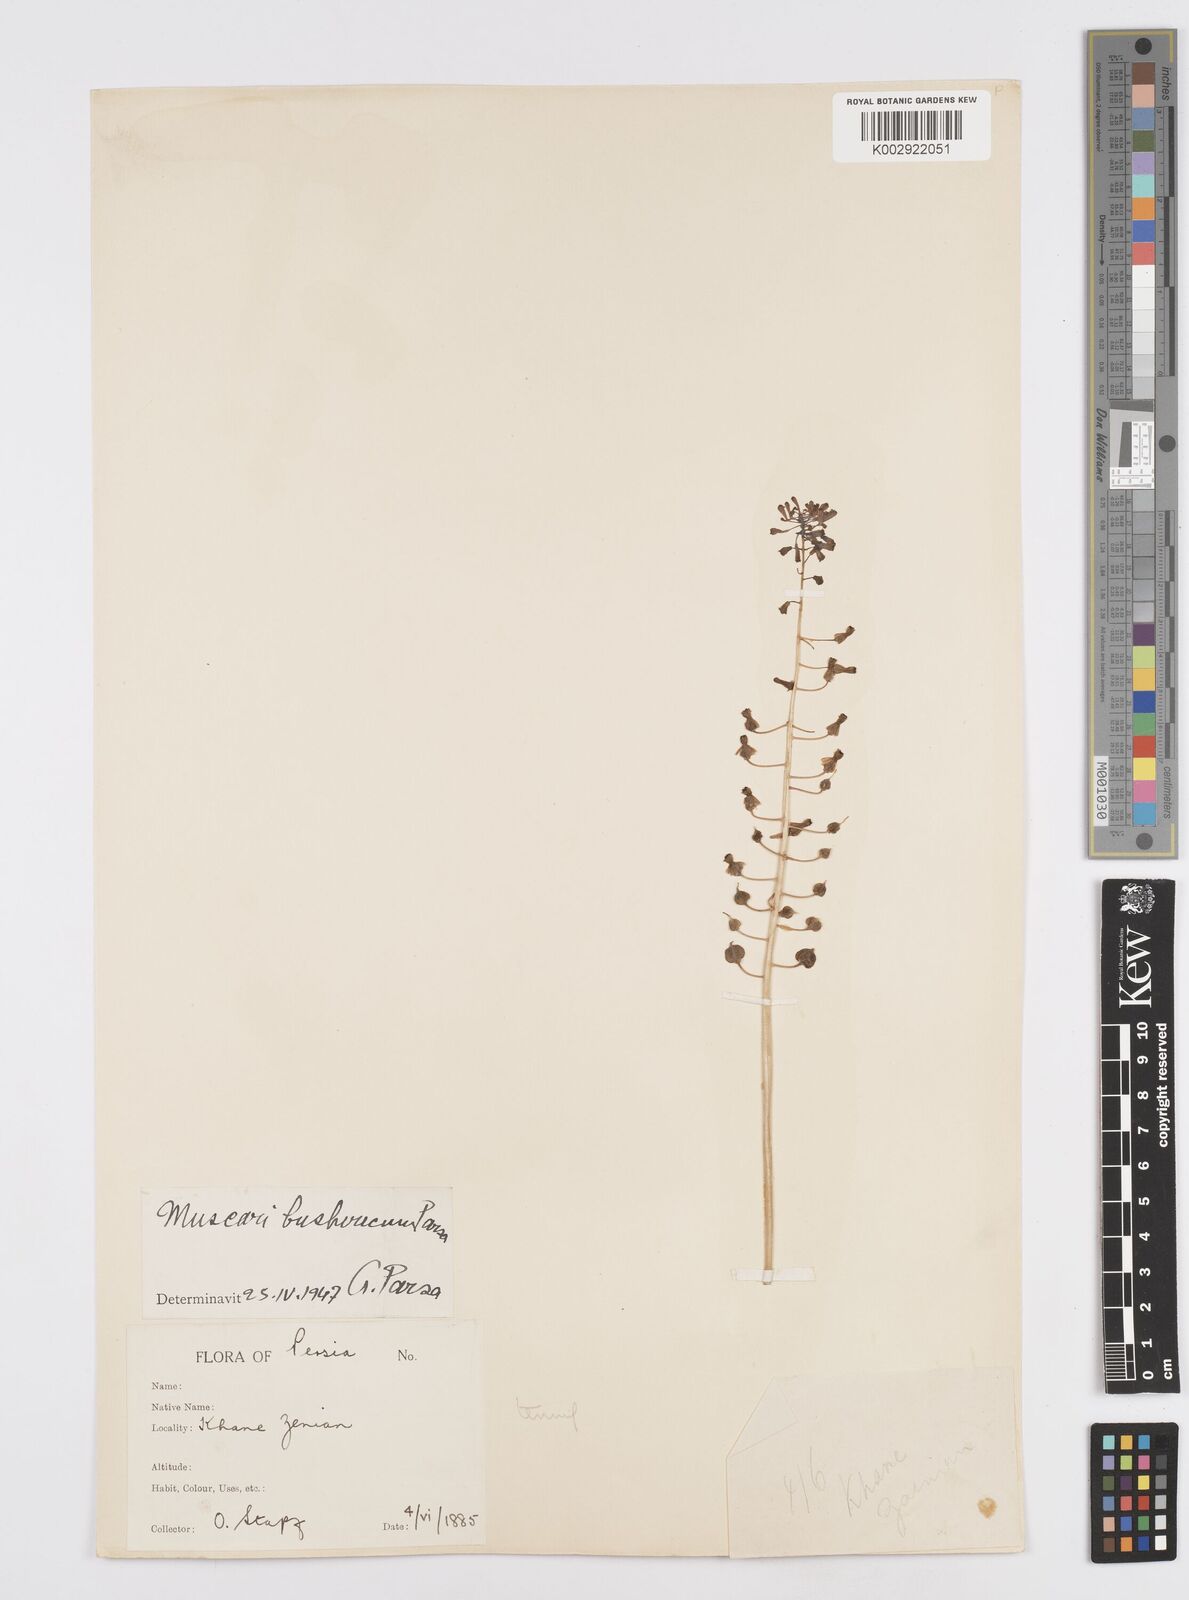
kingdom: Animalia
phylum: Mollusca
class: Cephalopoda
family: Neocomitidae
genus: Leopoldia
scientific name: Leopoldia
